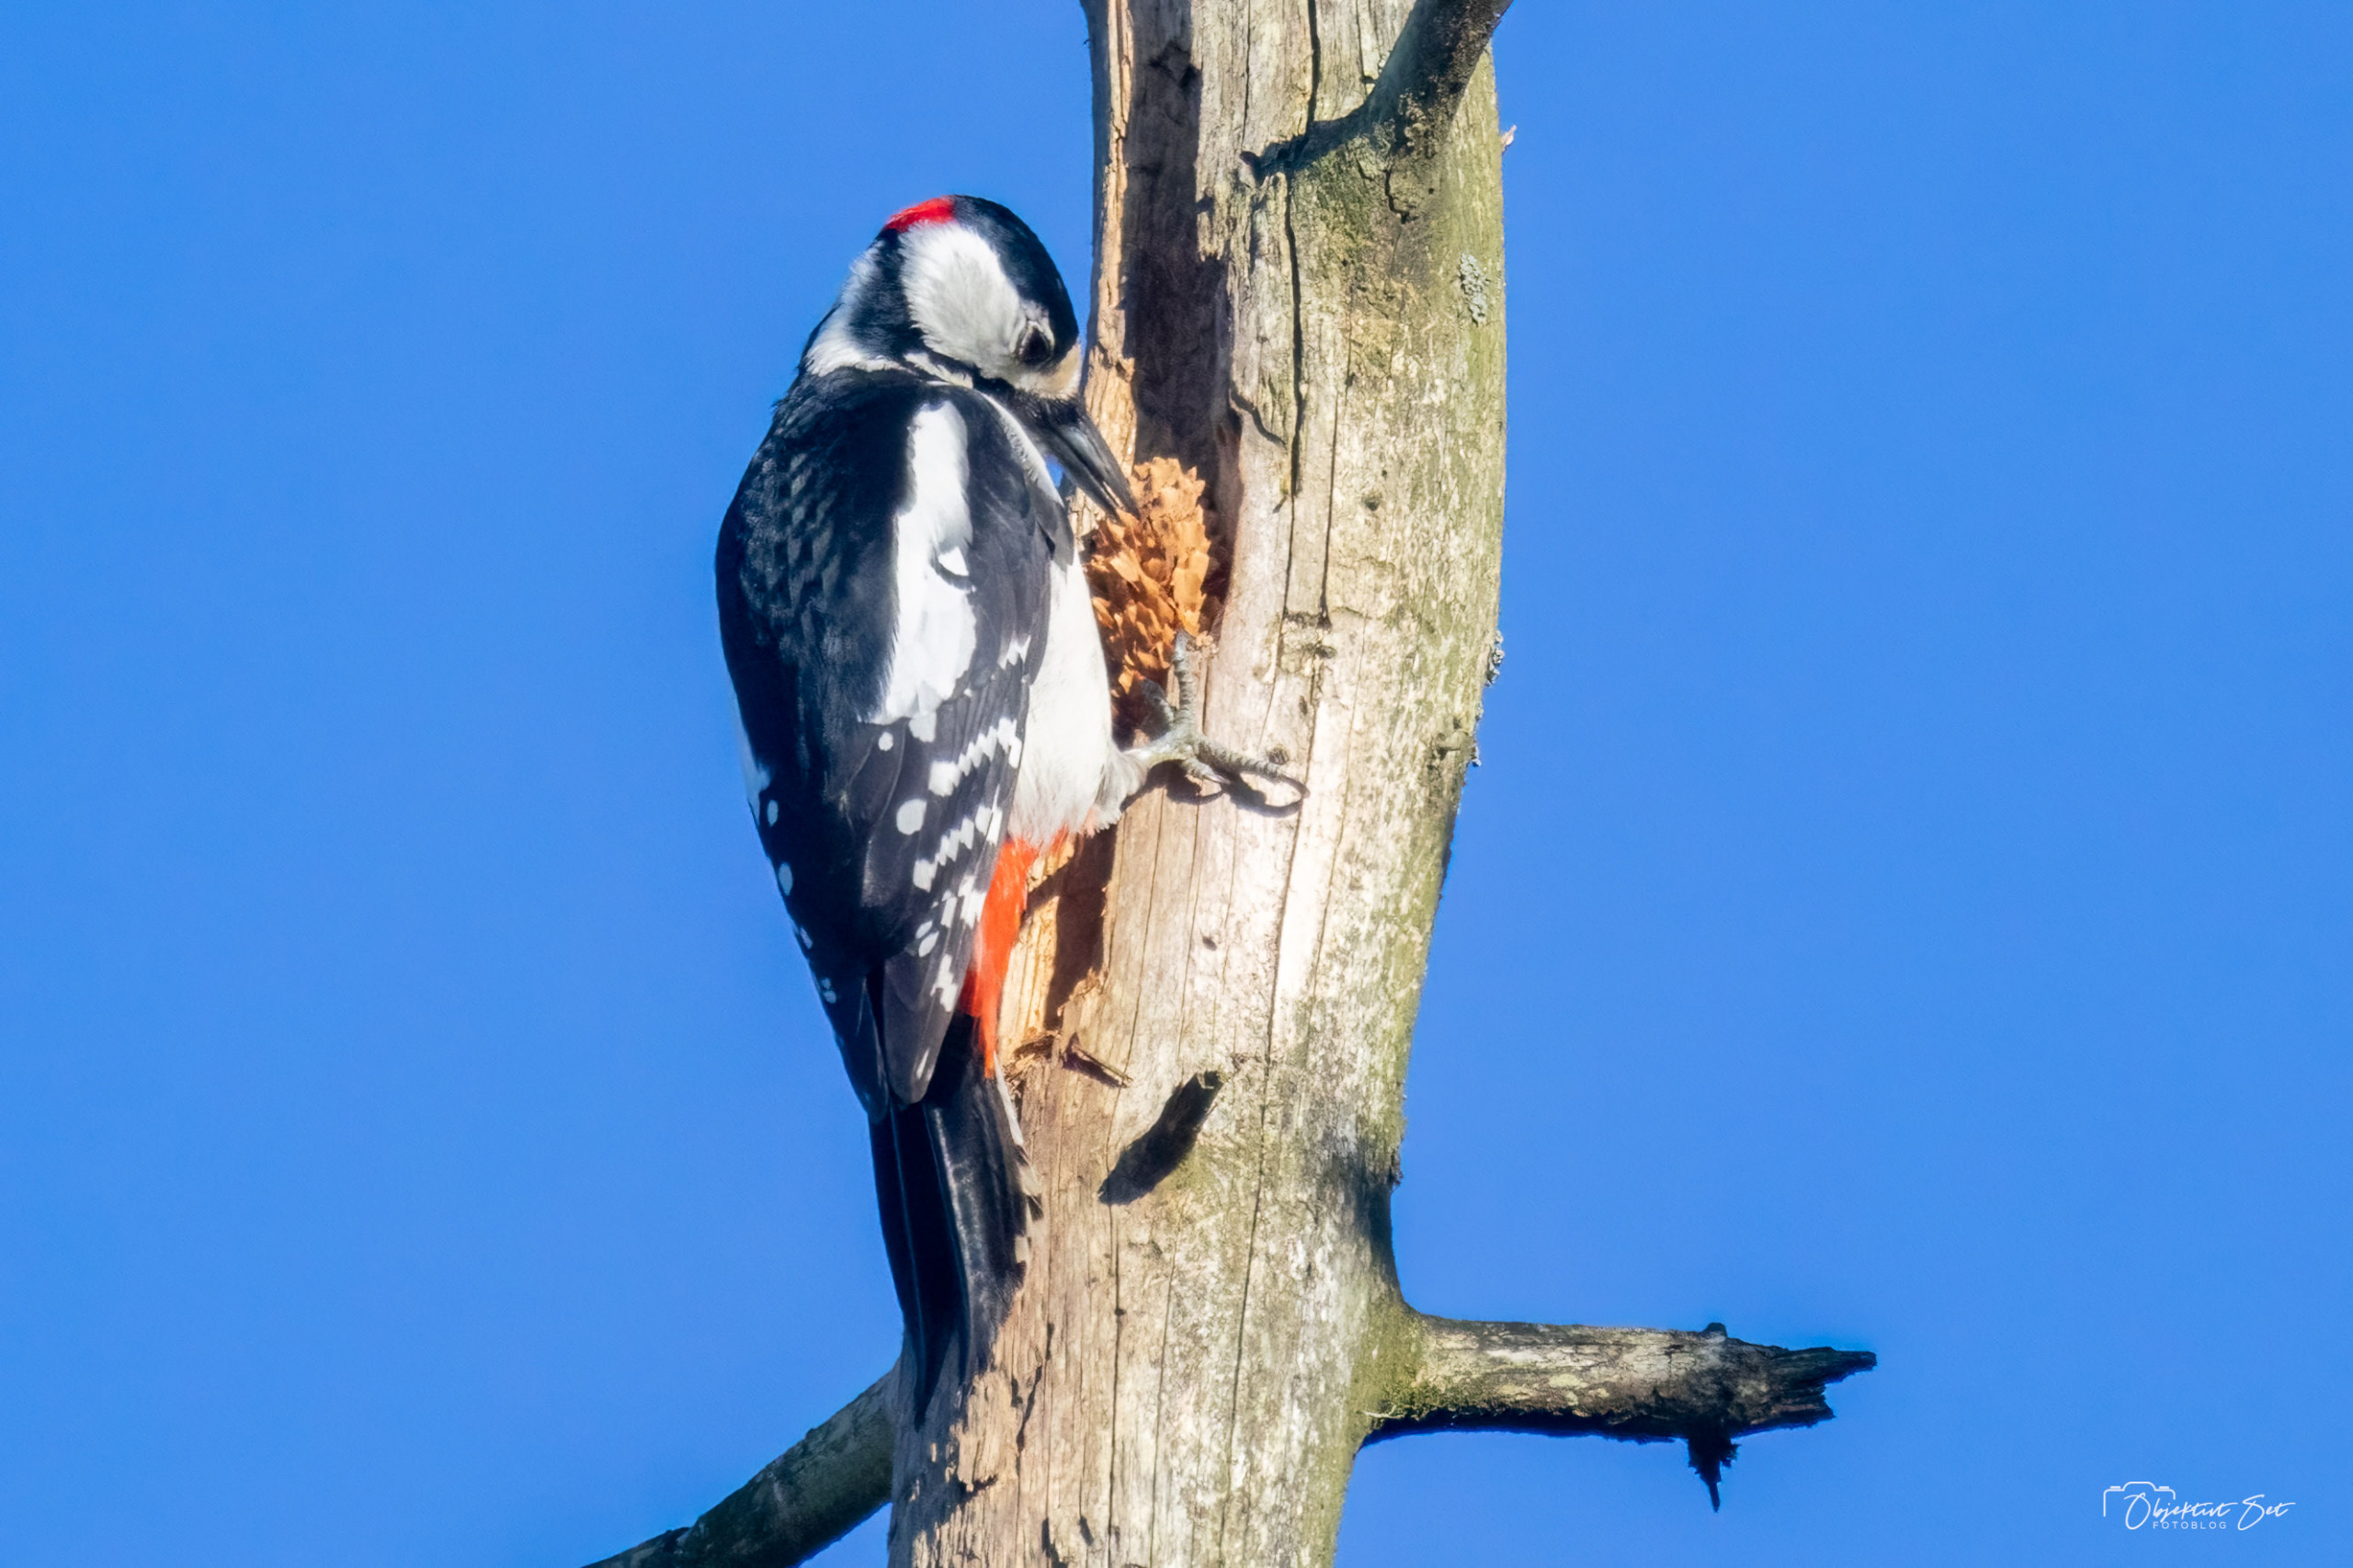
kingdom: Animalia
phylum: Chordata
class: Aves
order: Piciformes
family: Picidae
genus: Dendrocopos
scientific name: Dendrocopos major
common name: Stor flagspætte
